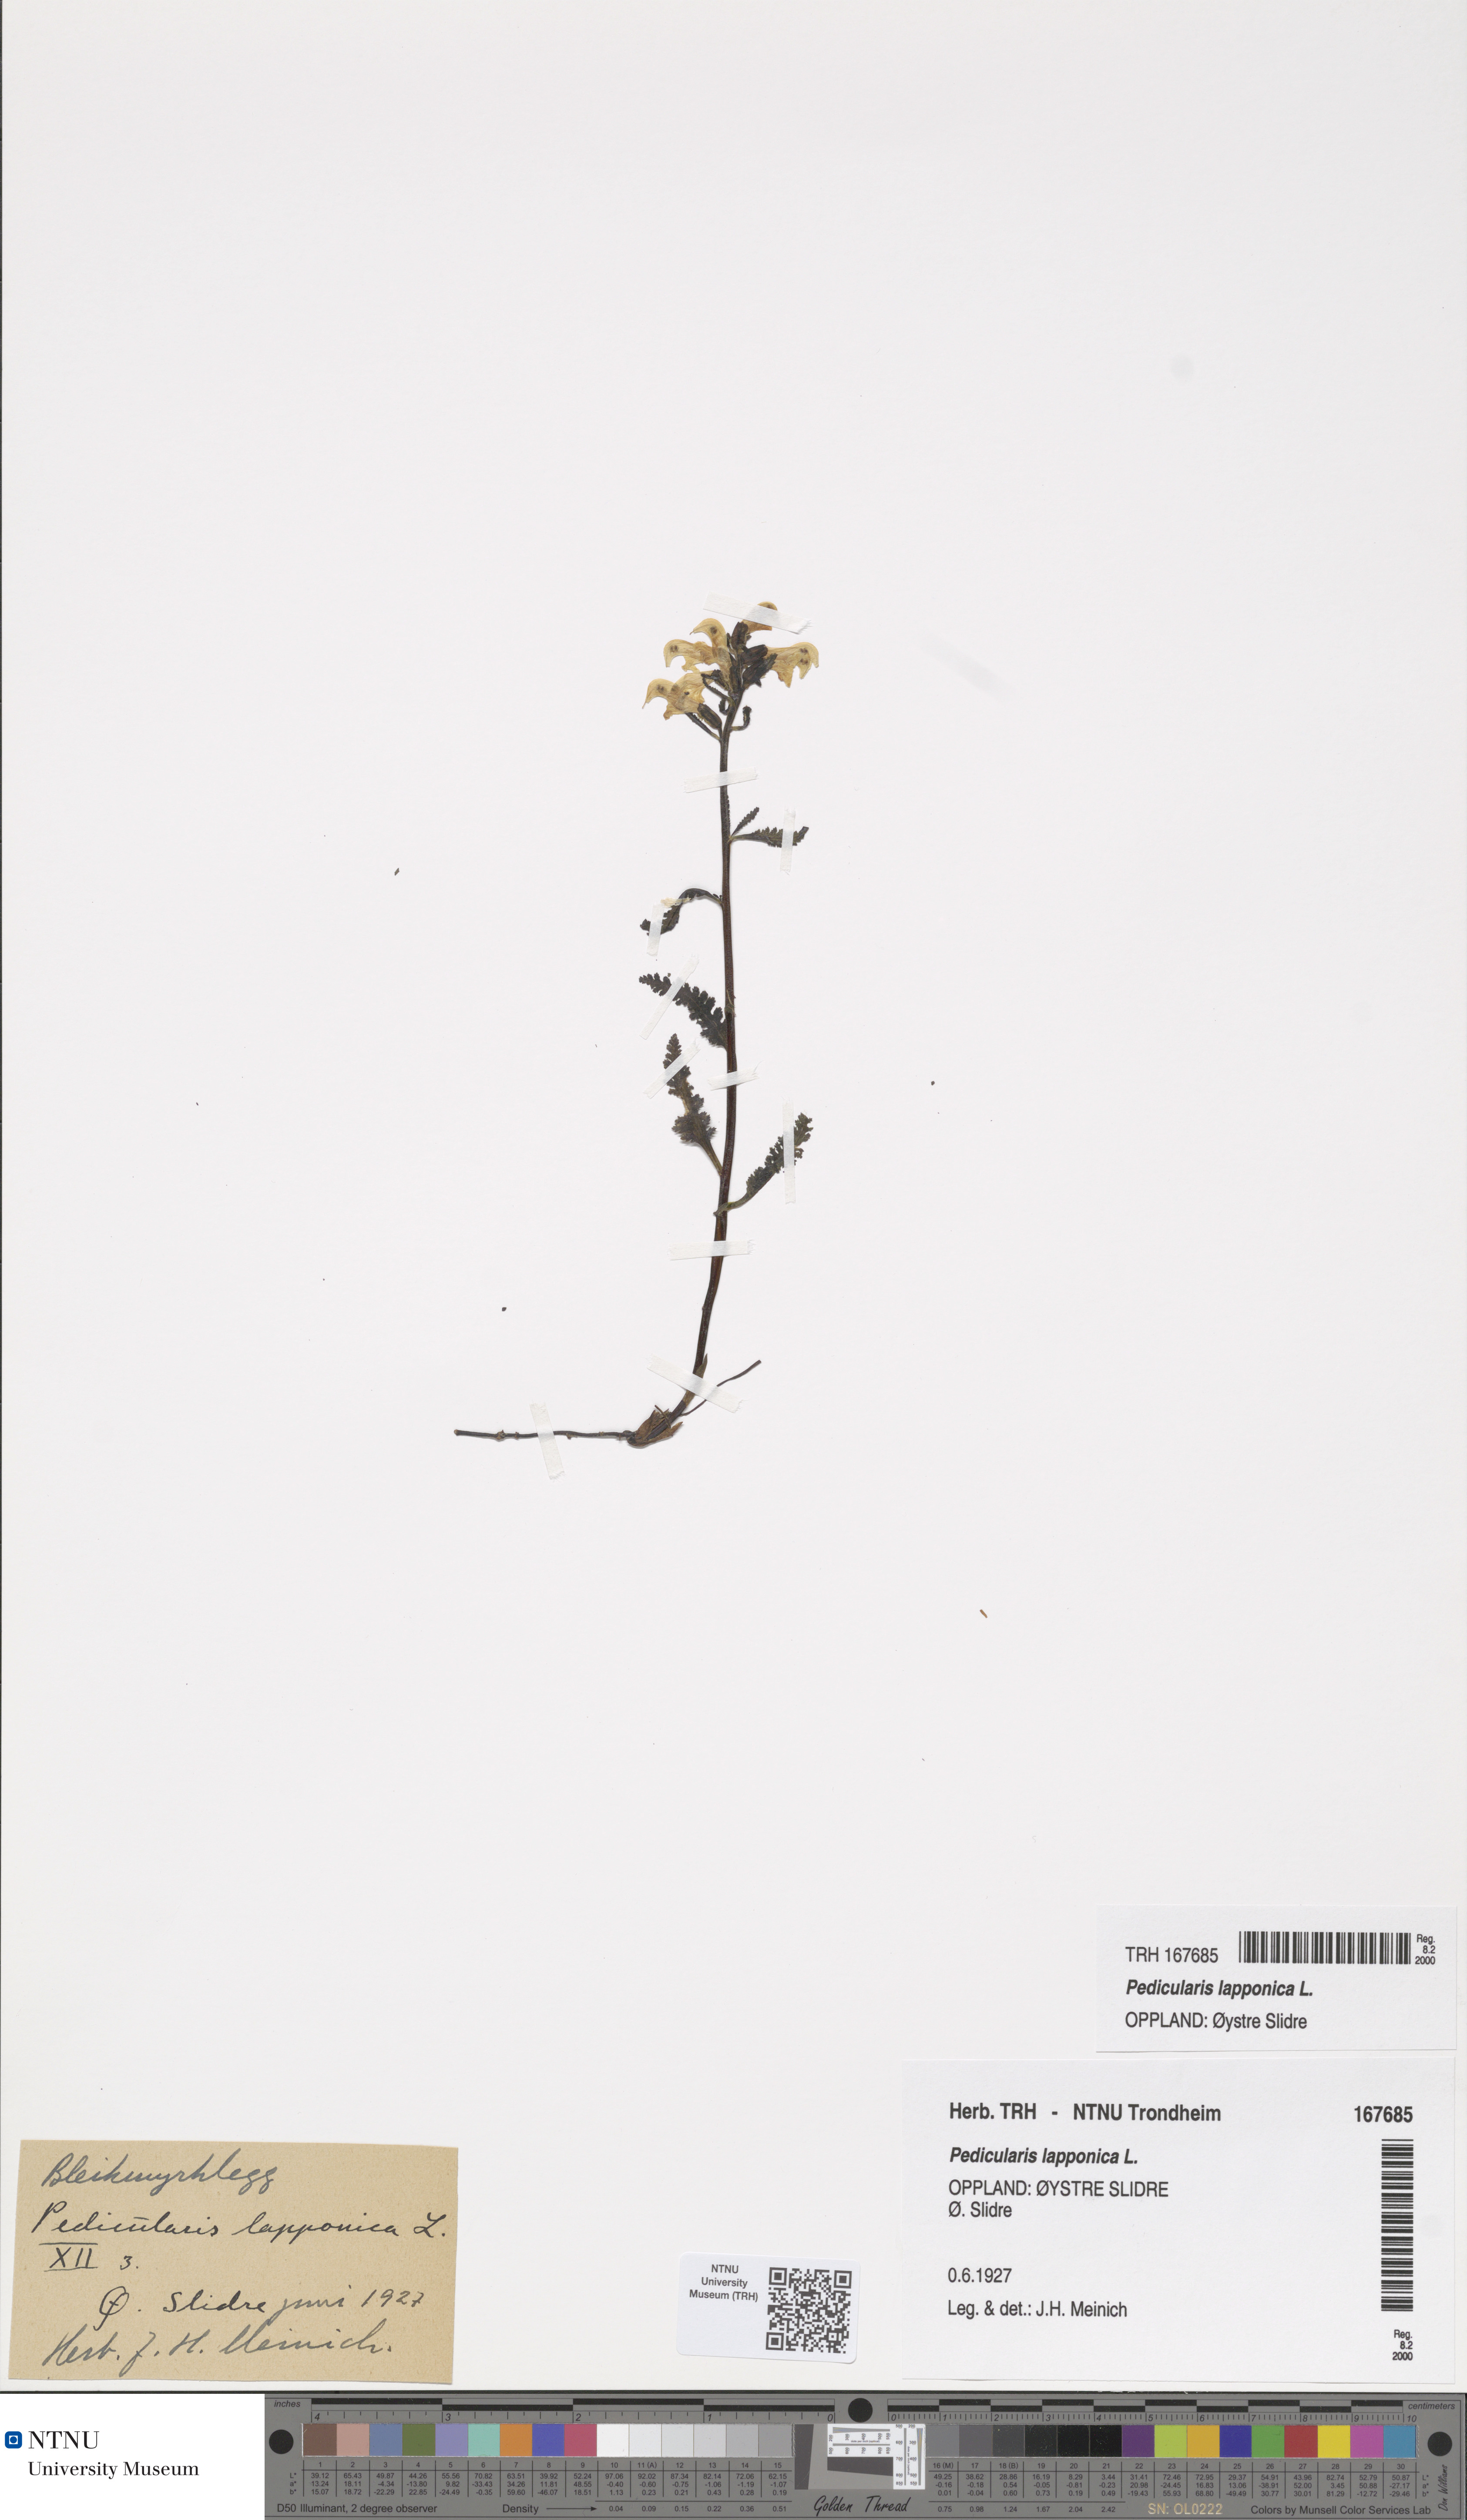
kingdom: Plantae
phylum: Tracheophyta
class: Magnoliopsida
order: Lamiales
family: Orobanchaceae
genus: Pedicularis
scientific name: Pedicularis lapponica
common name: Lapland lousewort
